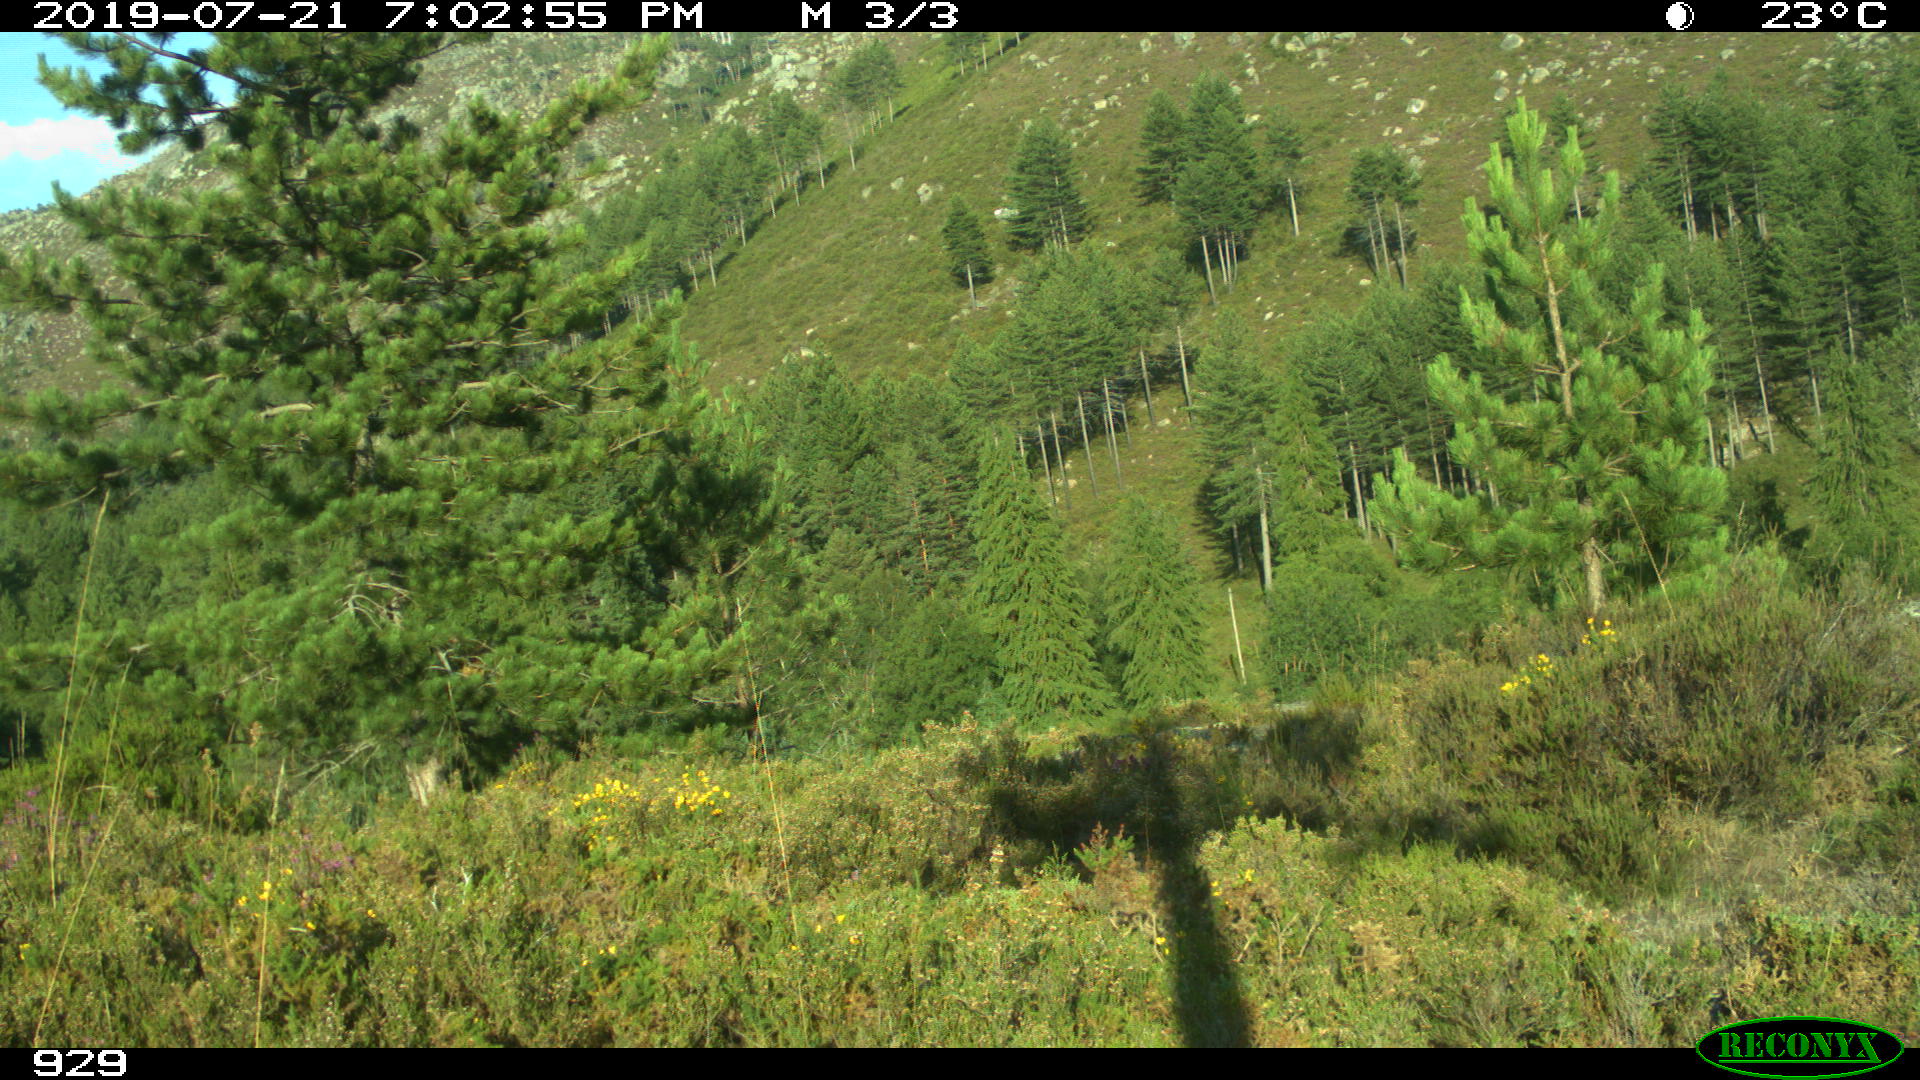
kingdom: Animalia
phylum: Chordata
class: Mammalia
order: Artiodactyla
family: Cervidae
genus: Capreolus
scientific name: Capreolus capreolus
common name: Western roe deer
